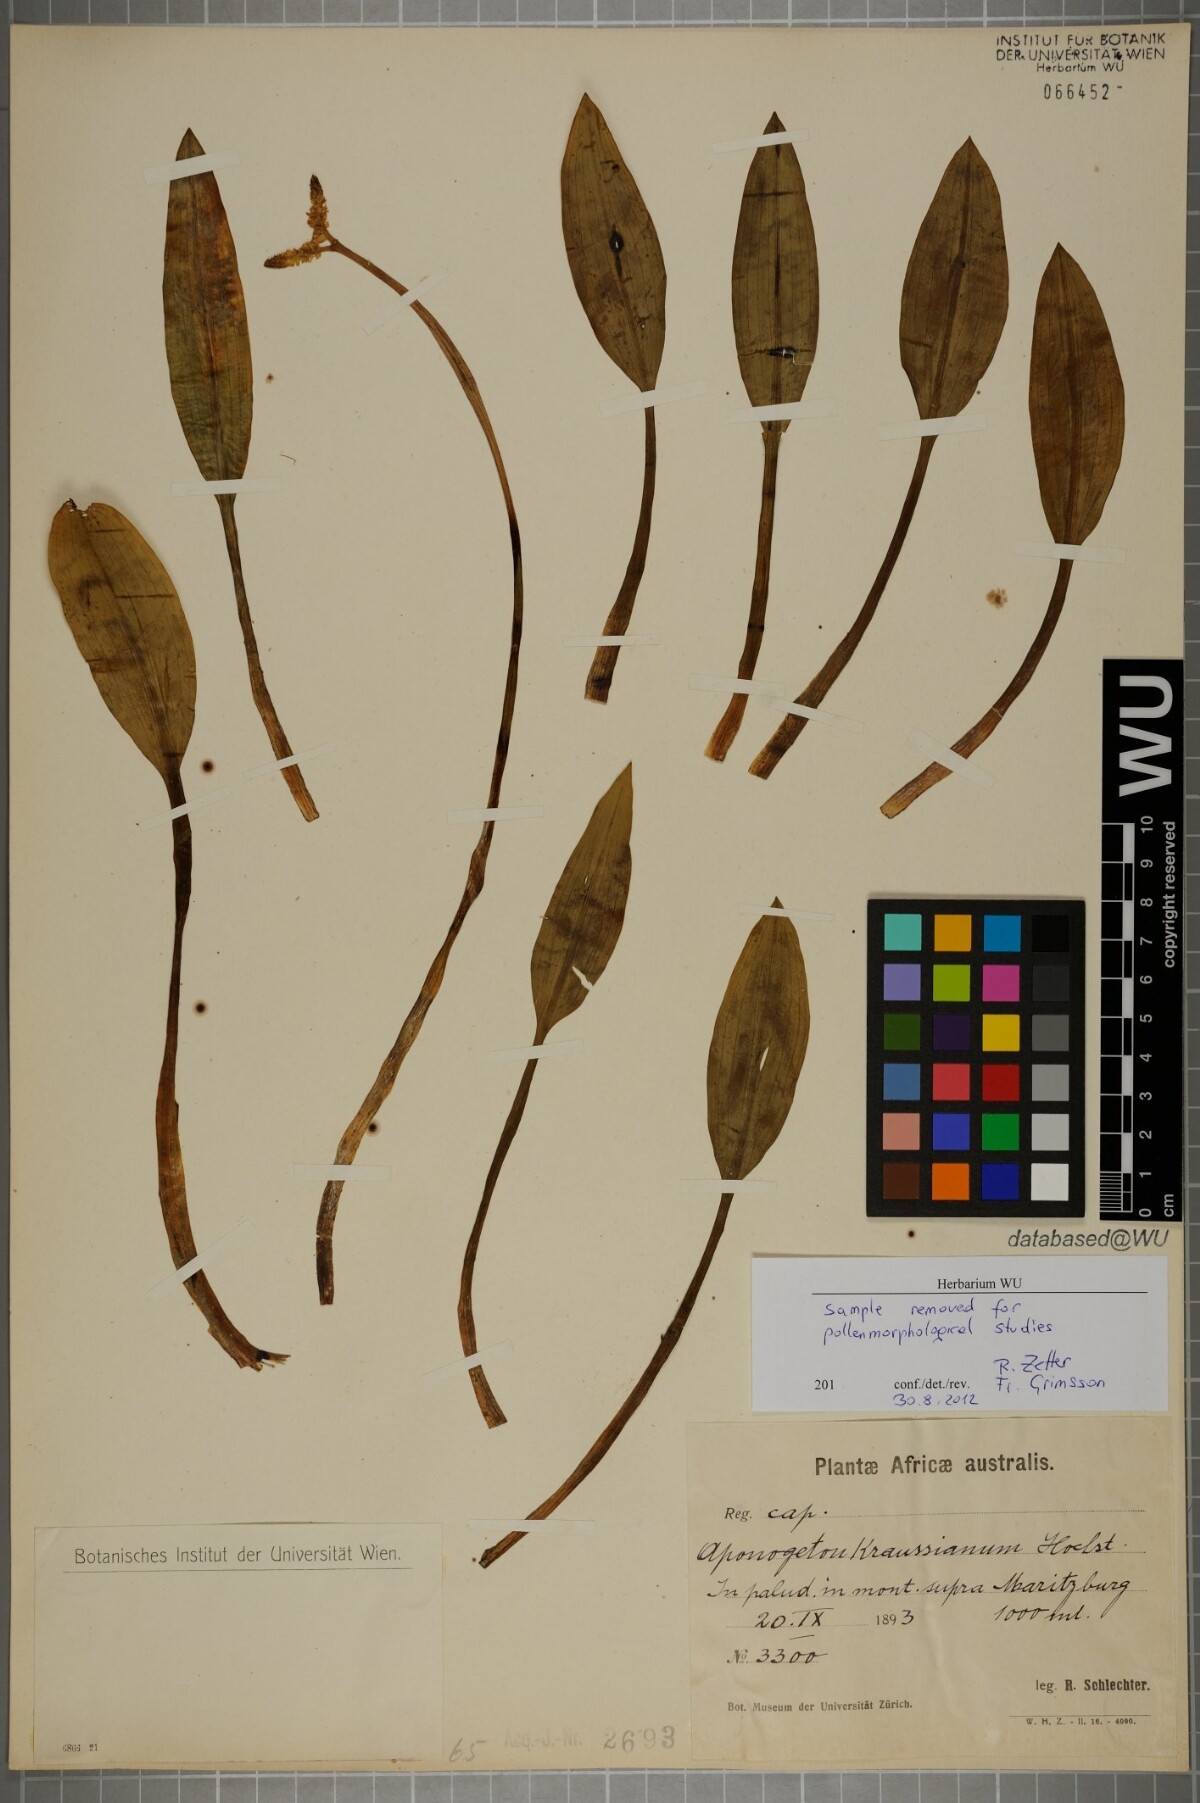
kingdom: Plantae
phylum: Tracheophyta
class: Liliopsida
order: Alismatales
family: Aponogetonaceae
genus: Aponogeton
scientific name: Aponogeton desertorum
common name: Dog-with-two-tails
